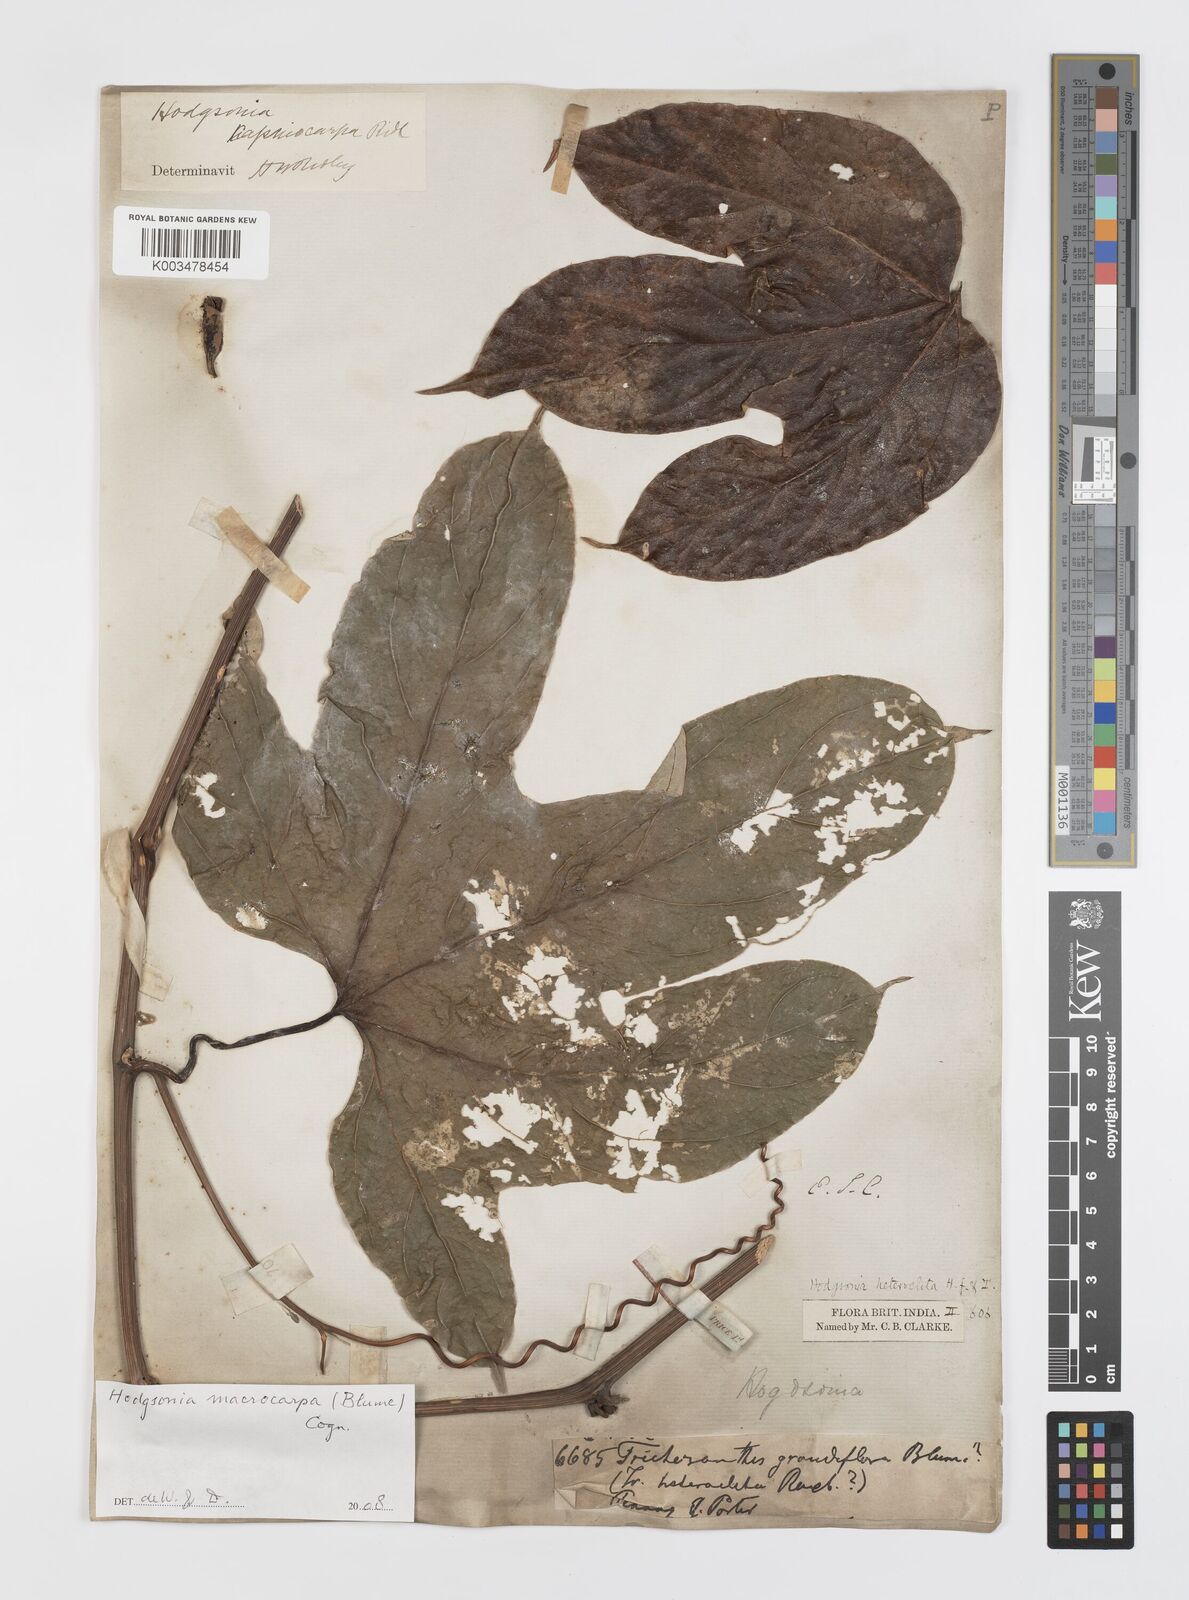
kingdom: Plantae
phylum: Tracheophyta
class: Magnoliopsida
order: Cucurbitales
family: Cucurbitaceae
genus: Hodgsonia
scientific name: Hodgsonia macrocarpa
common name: Chinese lardfruit
